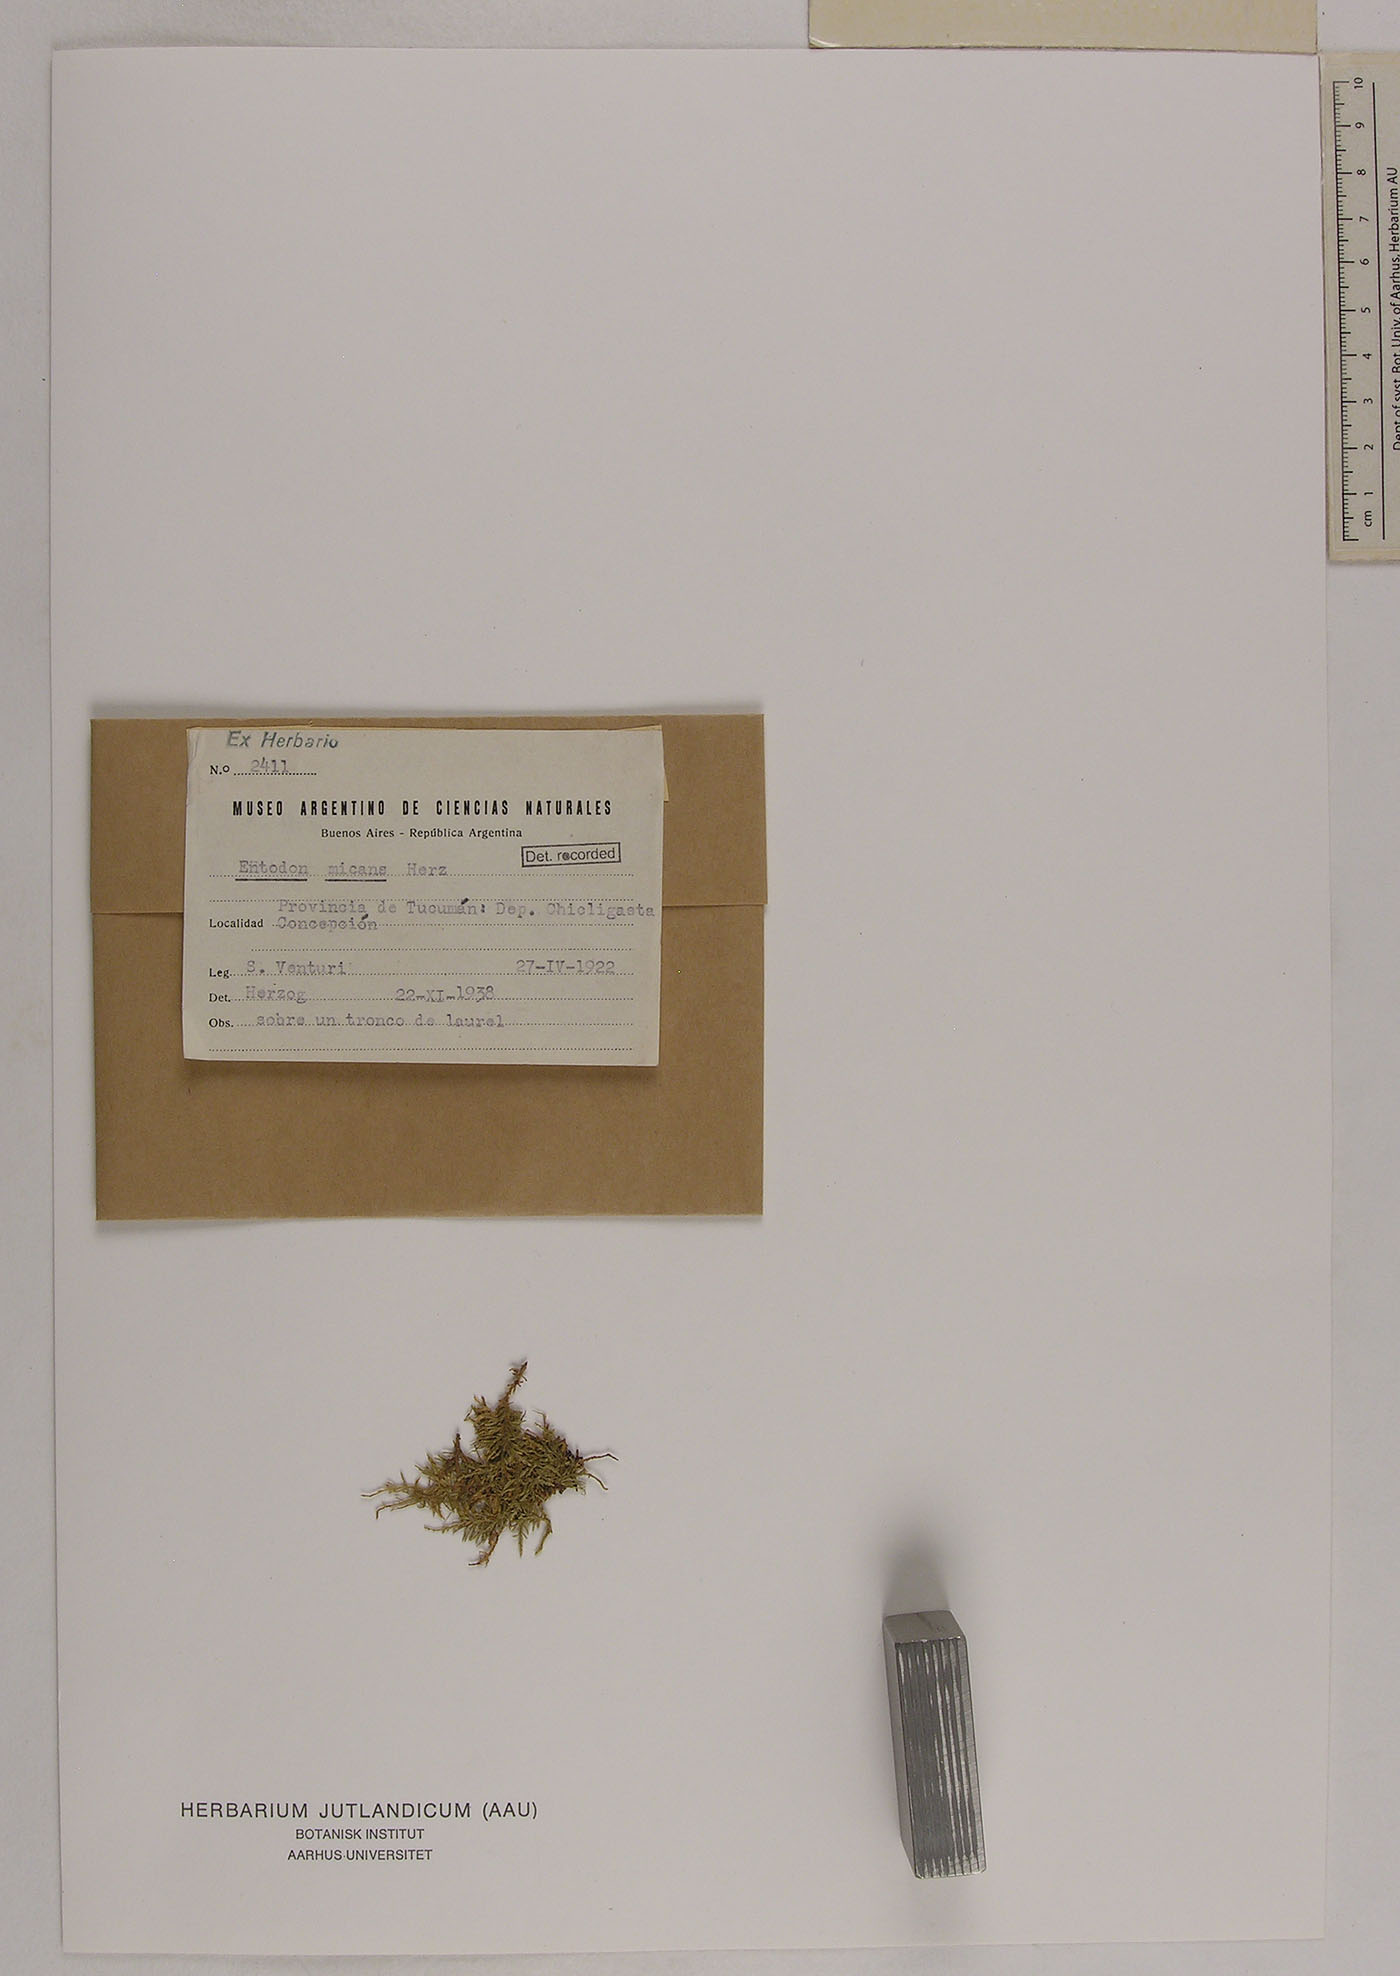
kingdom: Plantae
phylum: Bryophyta
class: Bryopsida
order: Hypnales
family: Entodontaceae
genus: Entodon
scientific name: Entodon micans
